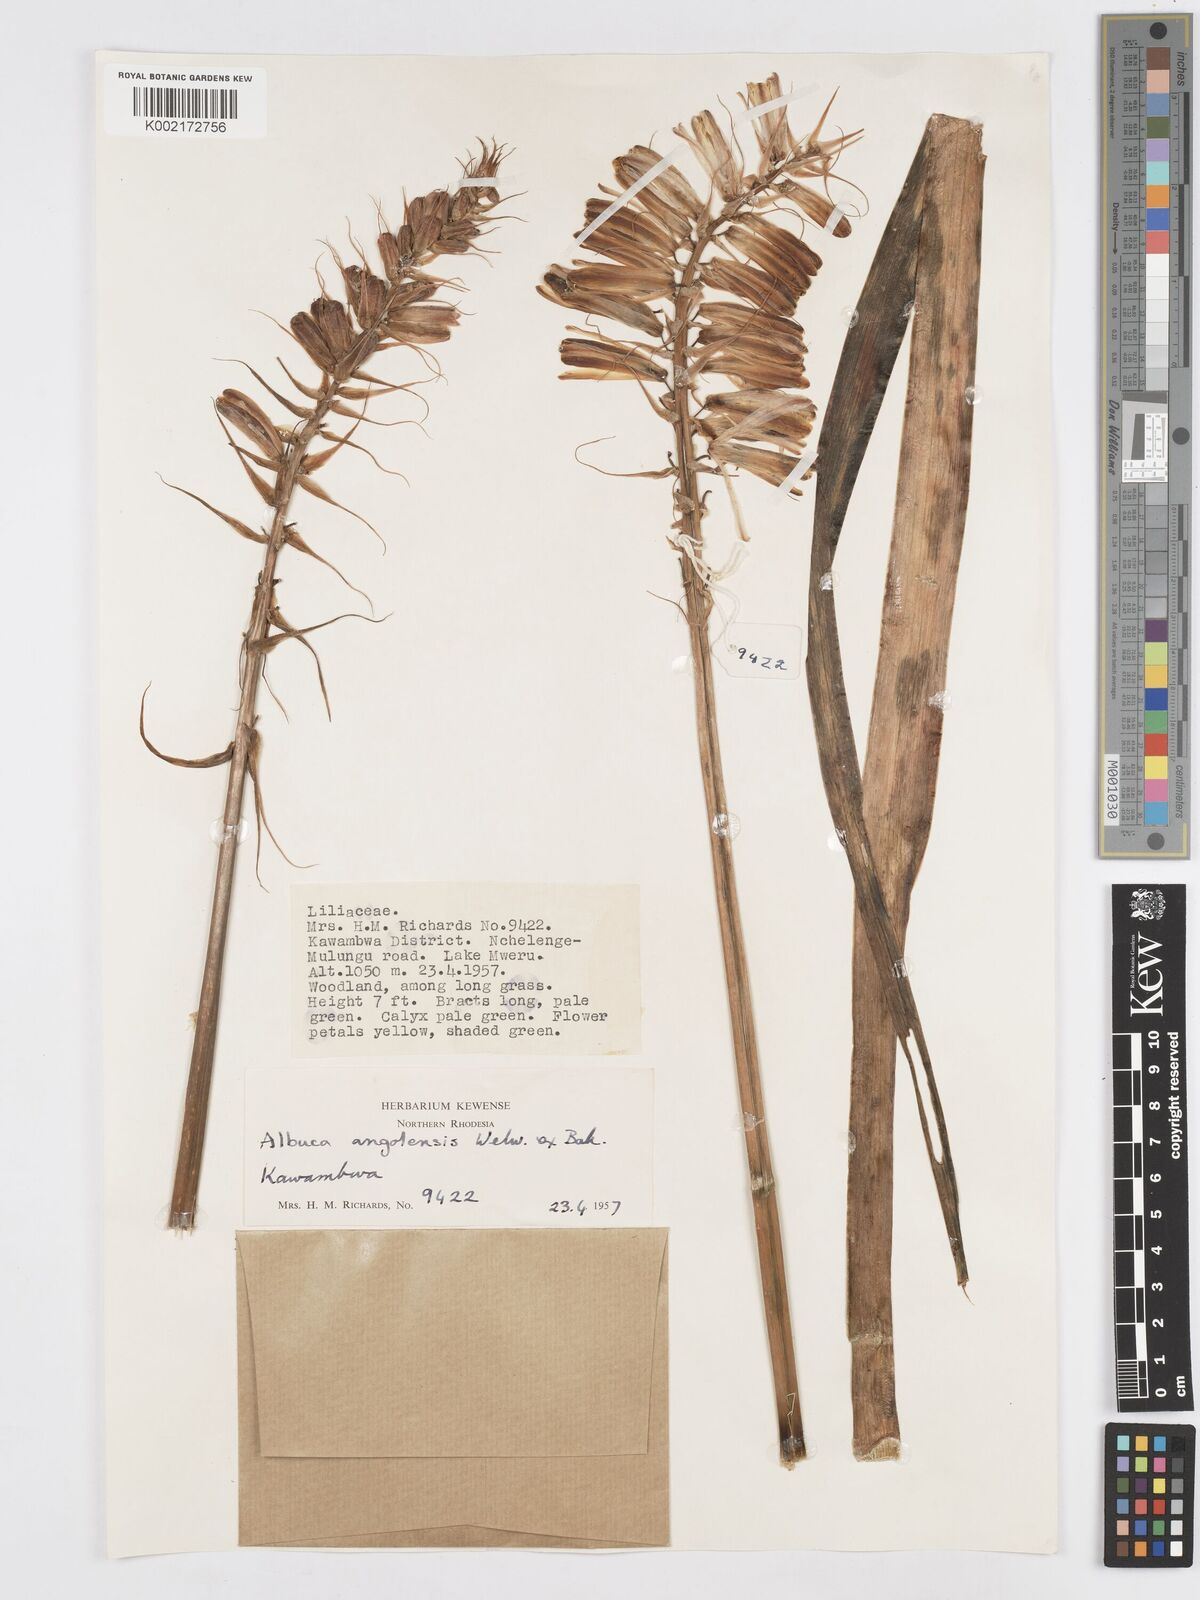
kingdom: Plantae
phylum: Tracheophyta
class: Liliopsida
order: Asparagales
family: Asparagaceae
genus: Albuca
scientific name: Albuca abyssinica
